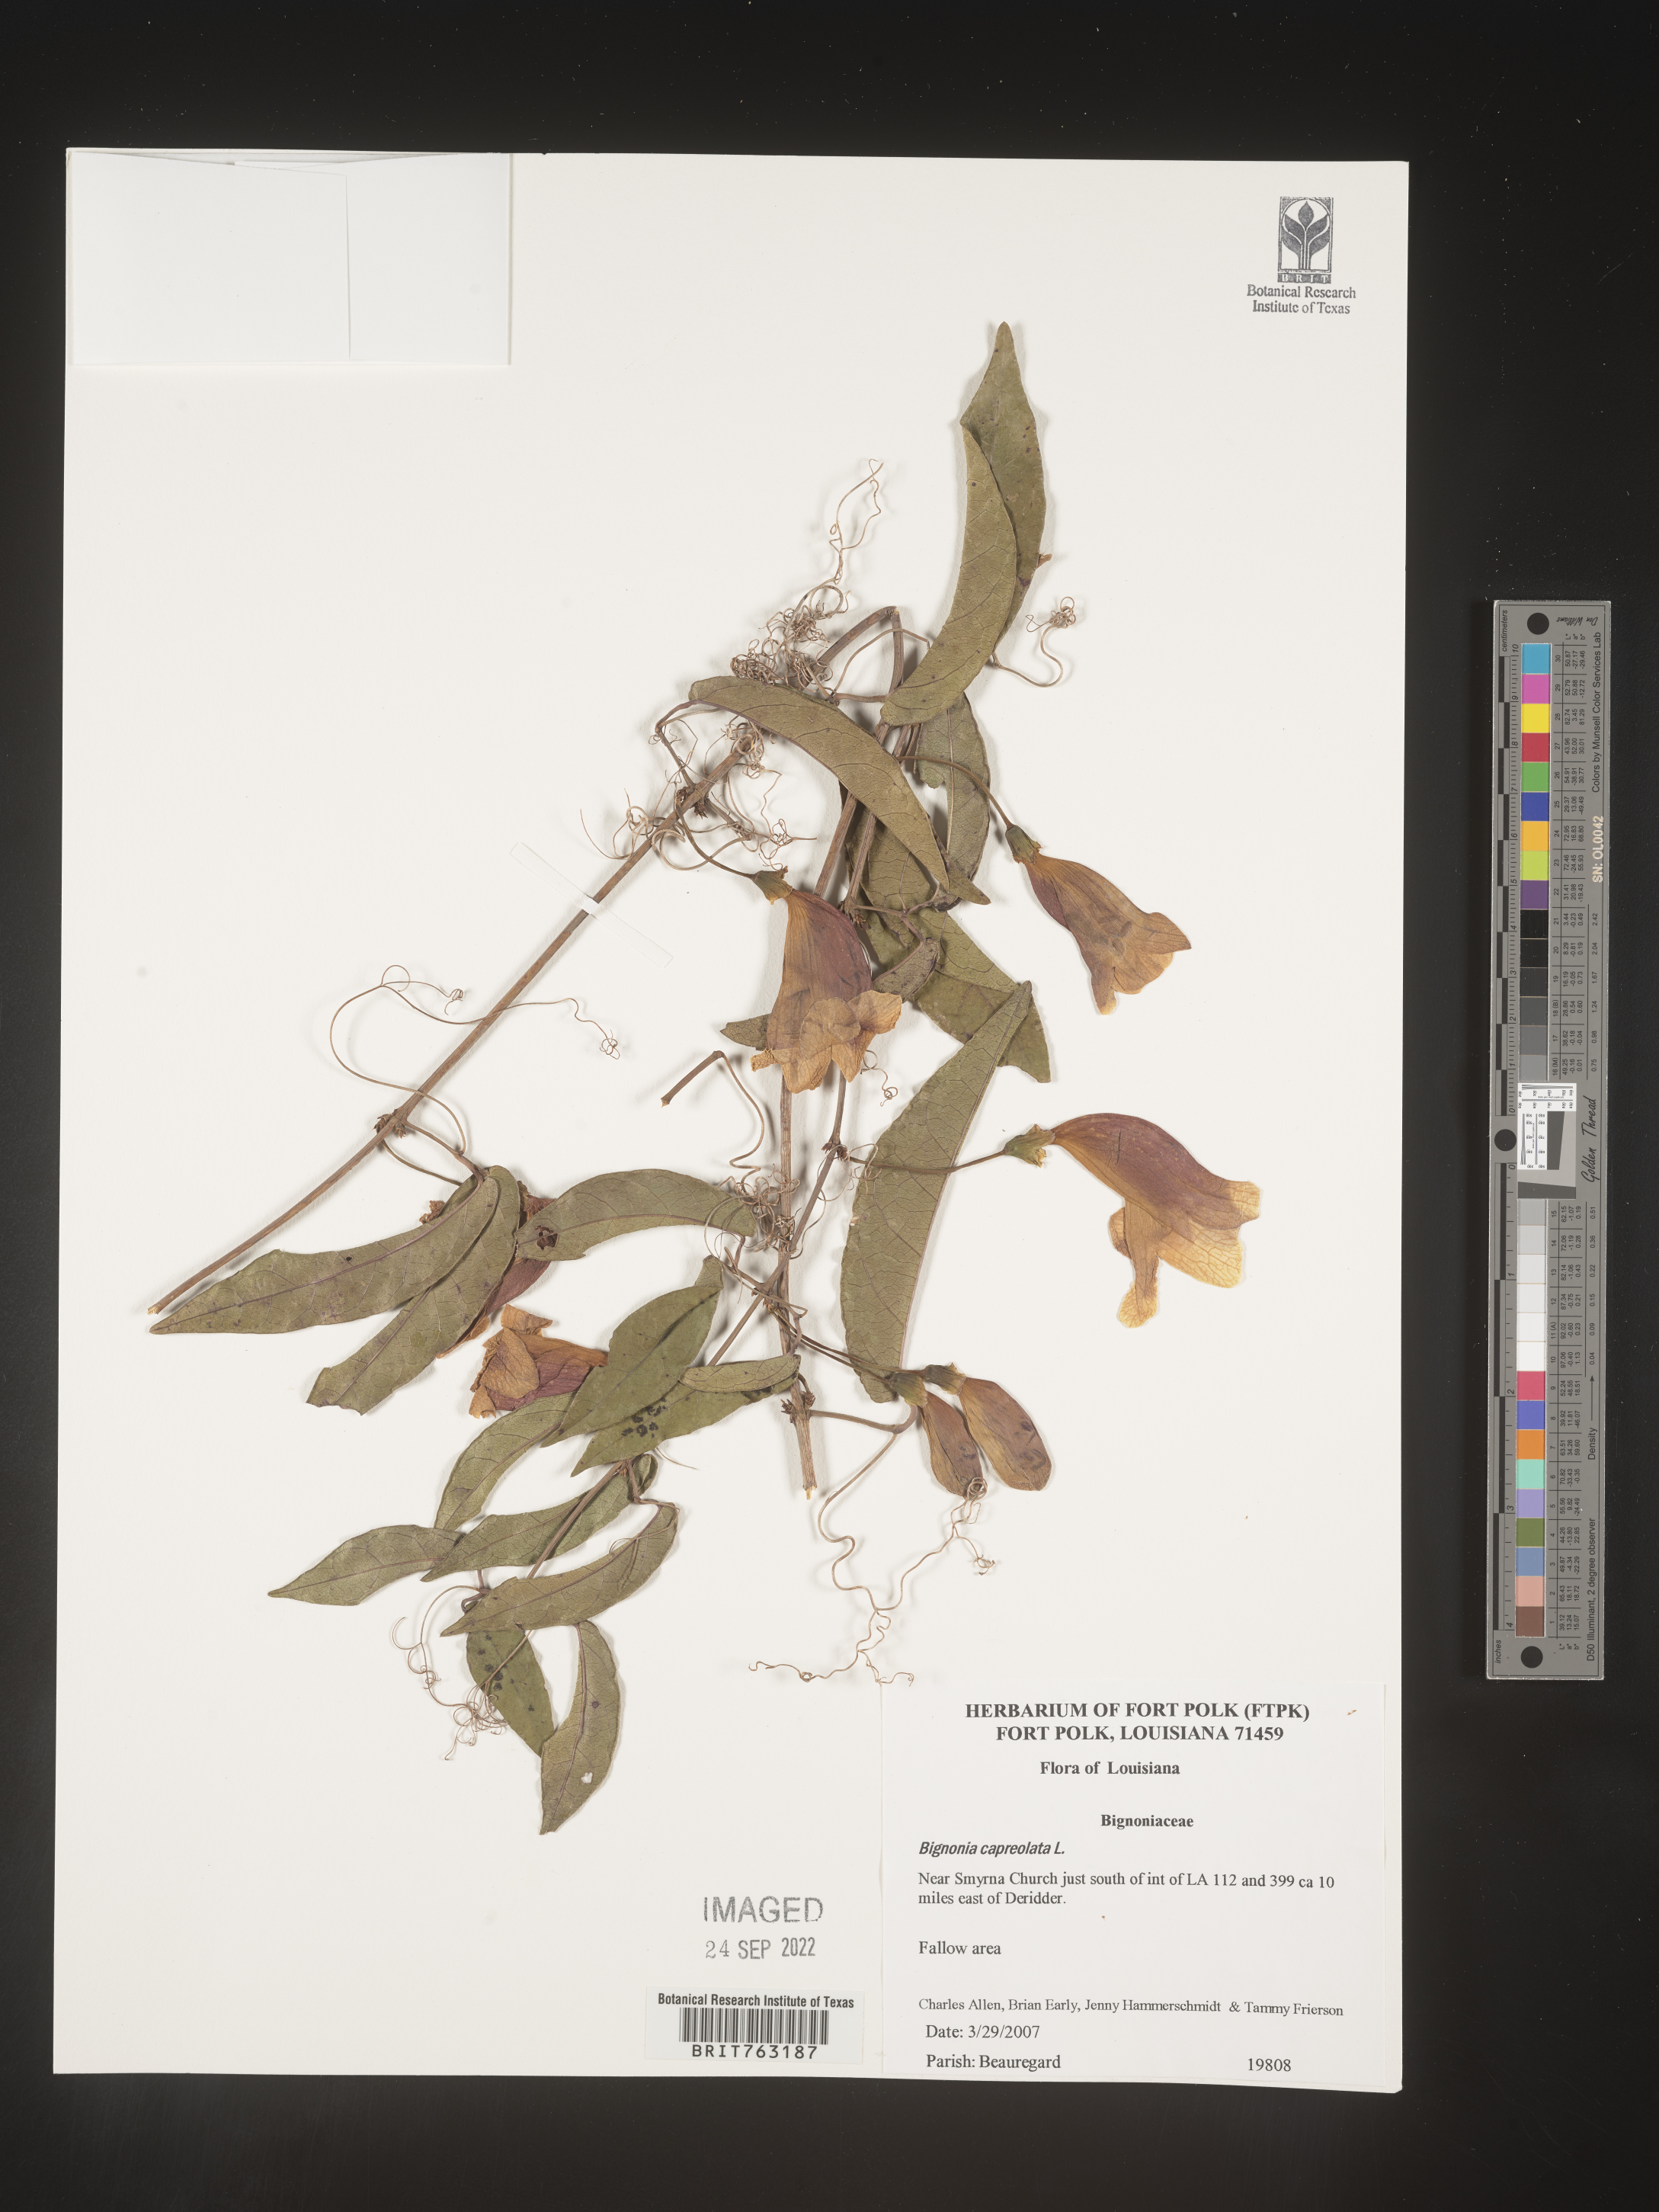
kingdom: Plantae
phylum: Tracheophyta
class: Magnoliopsida
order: Lamiales
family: Bignoniaceae
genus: Bignonia
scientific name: Bignonia capreolata
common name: Crossvine
